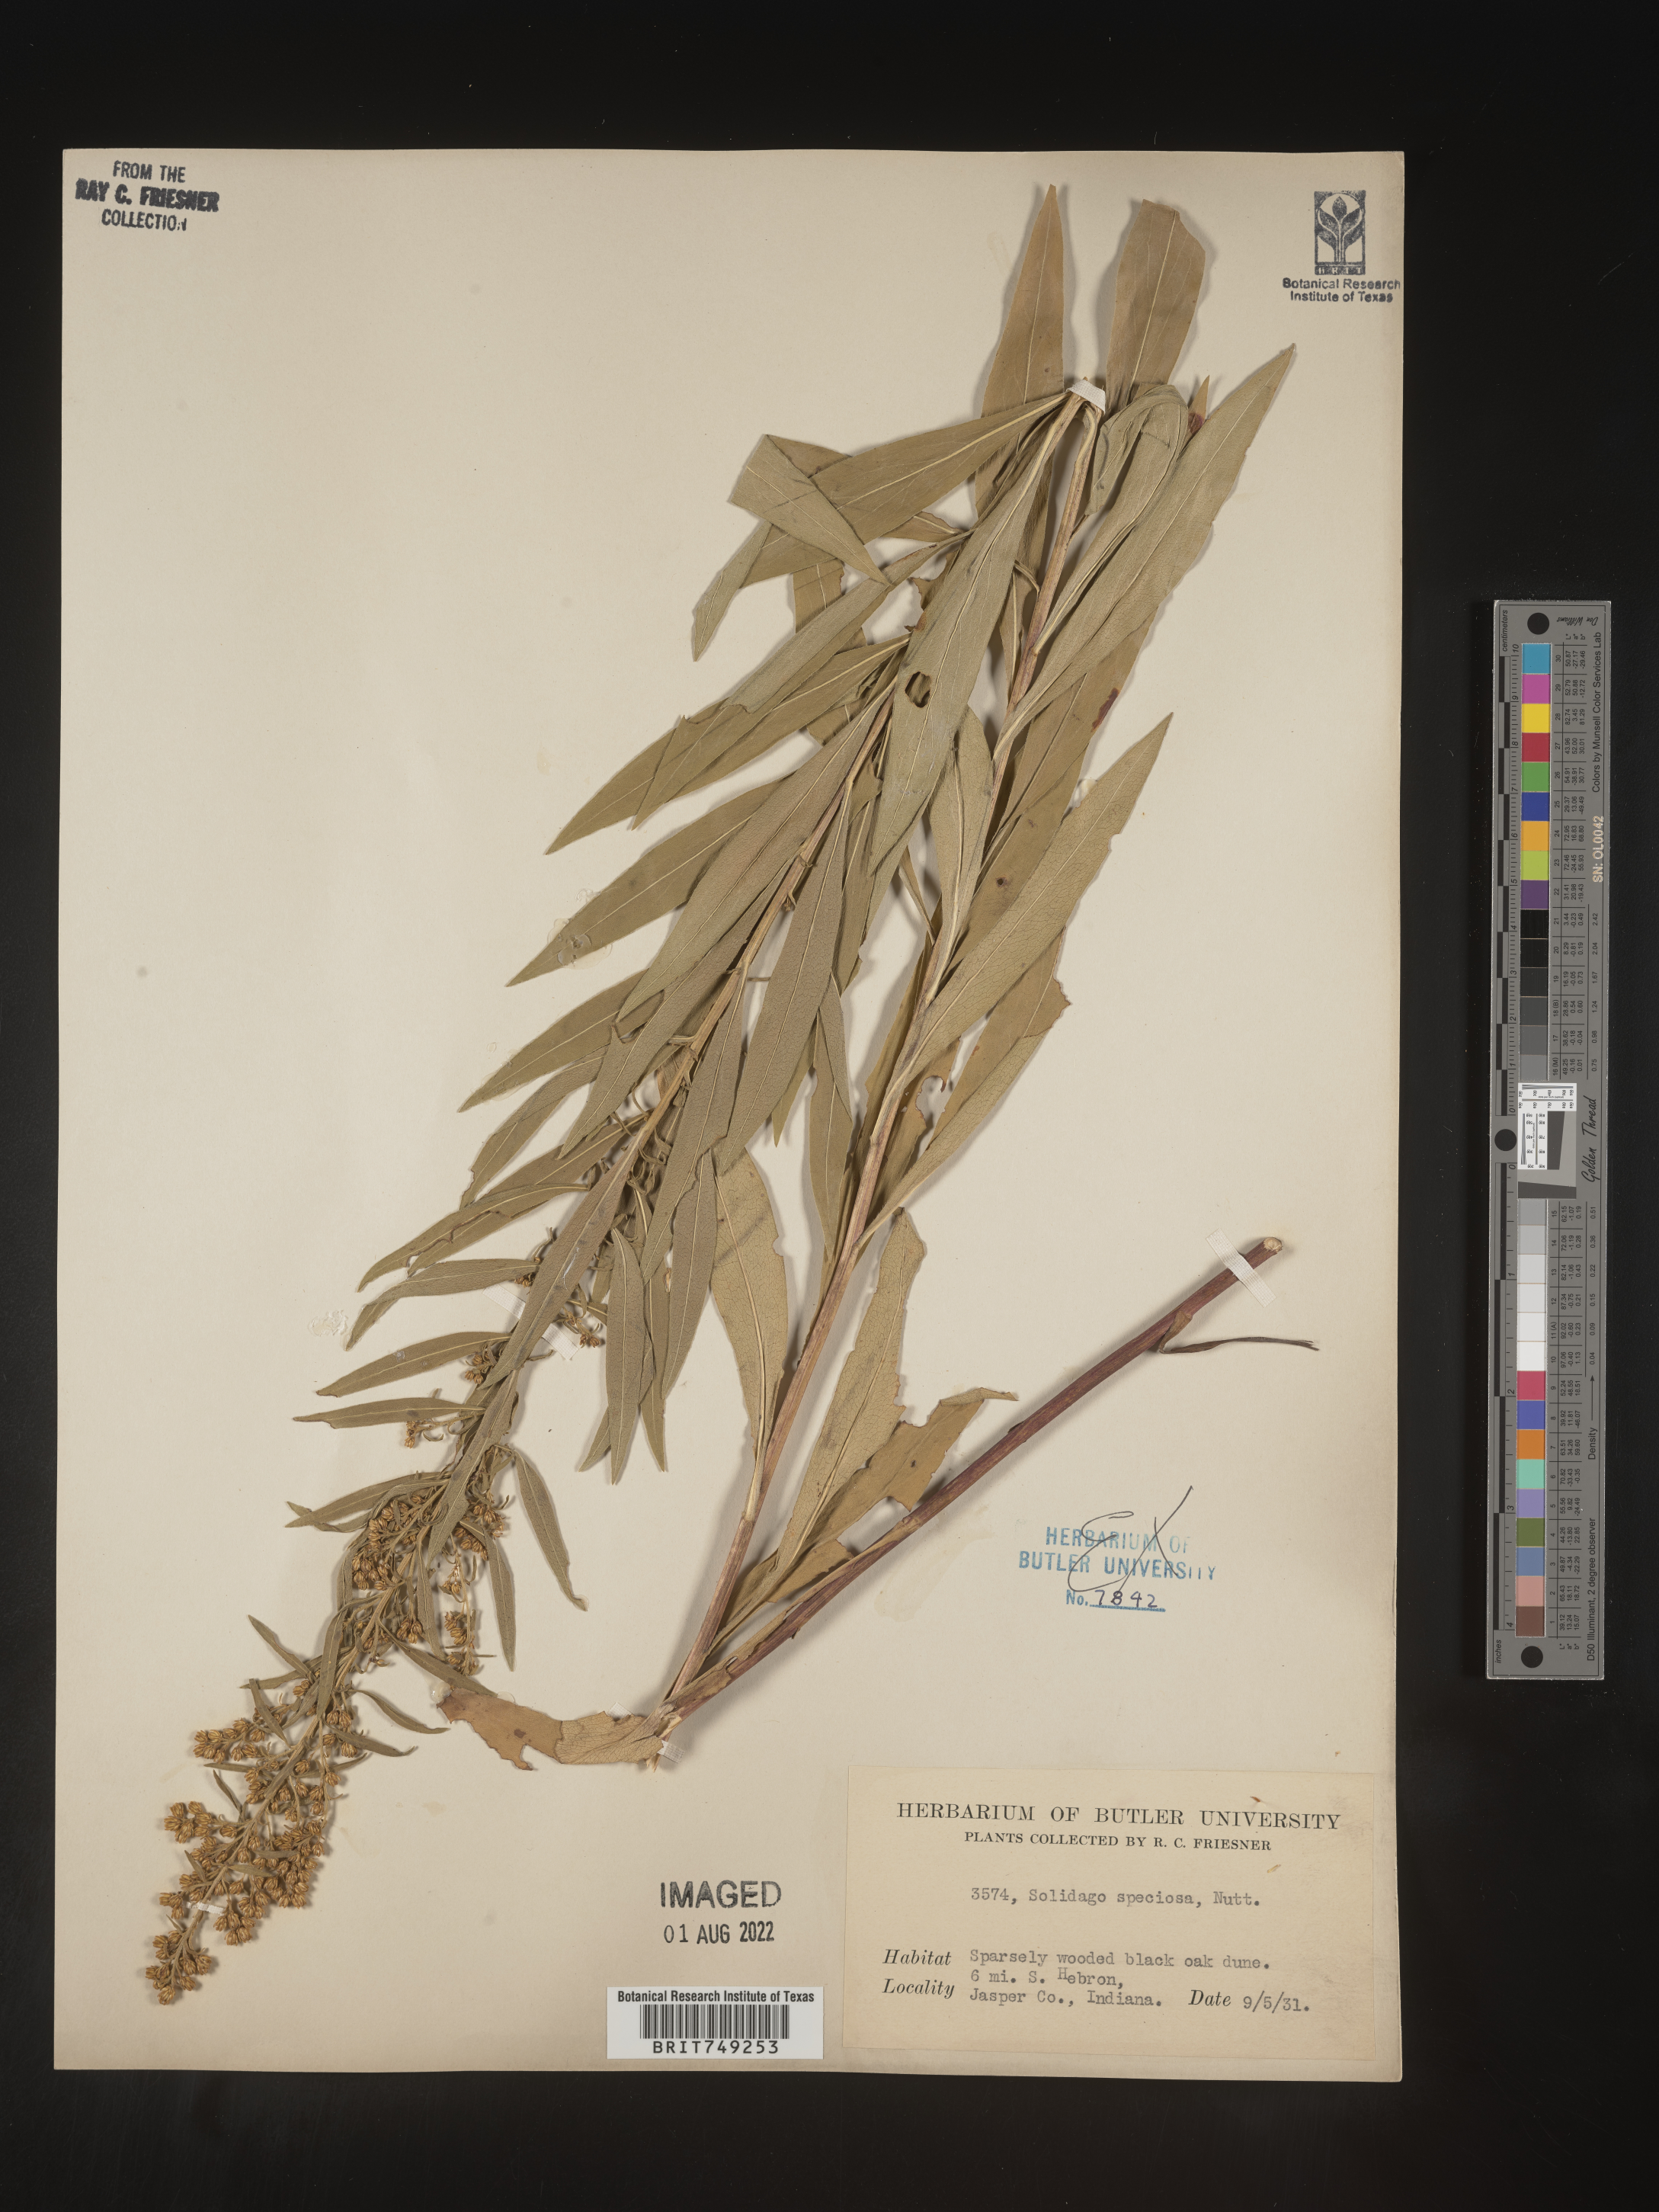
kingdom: Plantae
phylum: Tracheophyta
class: Magnoliopsida
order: Asterales
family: Asteraceae
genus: Solidago
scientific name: Solidago speciosa
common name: Showy goldenrod
